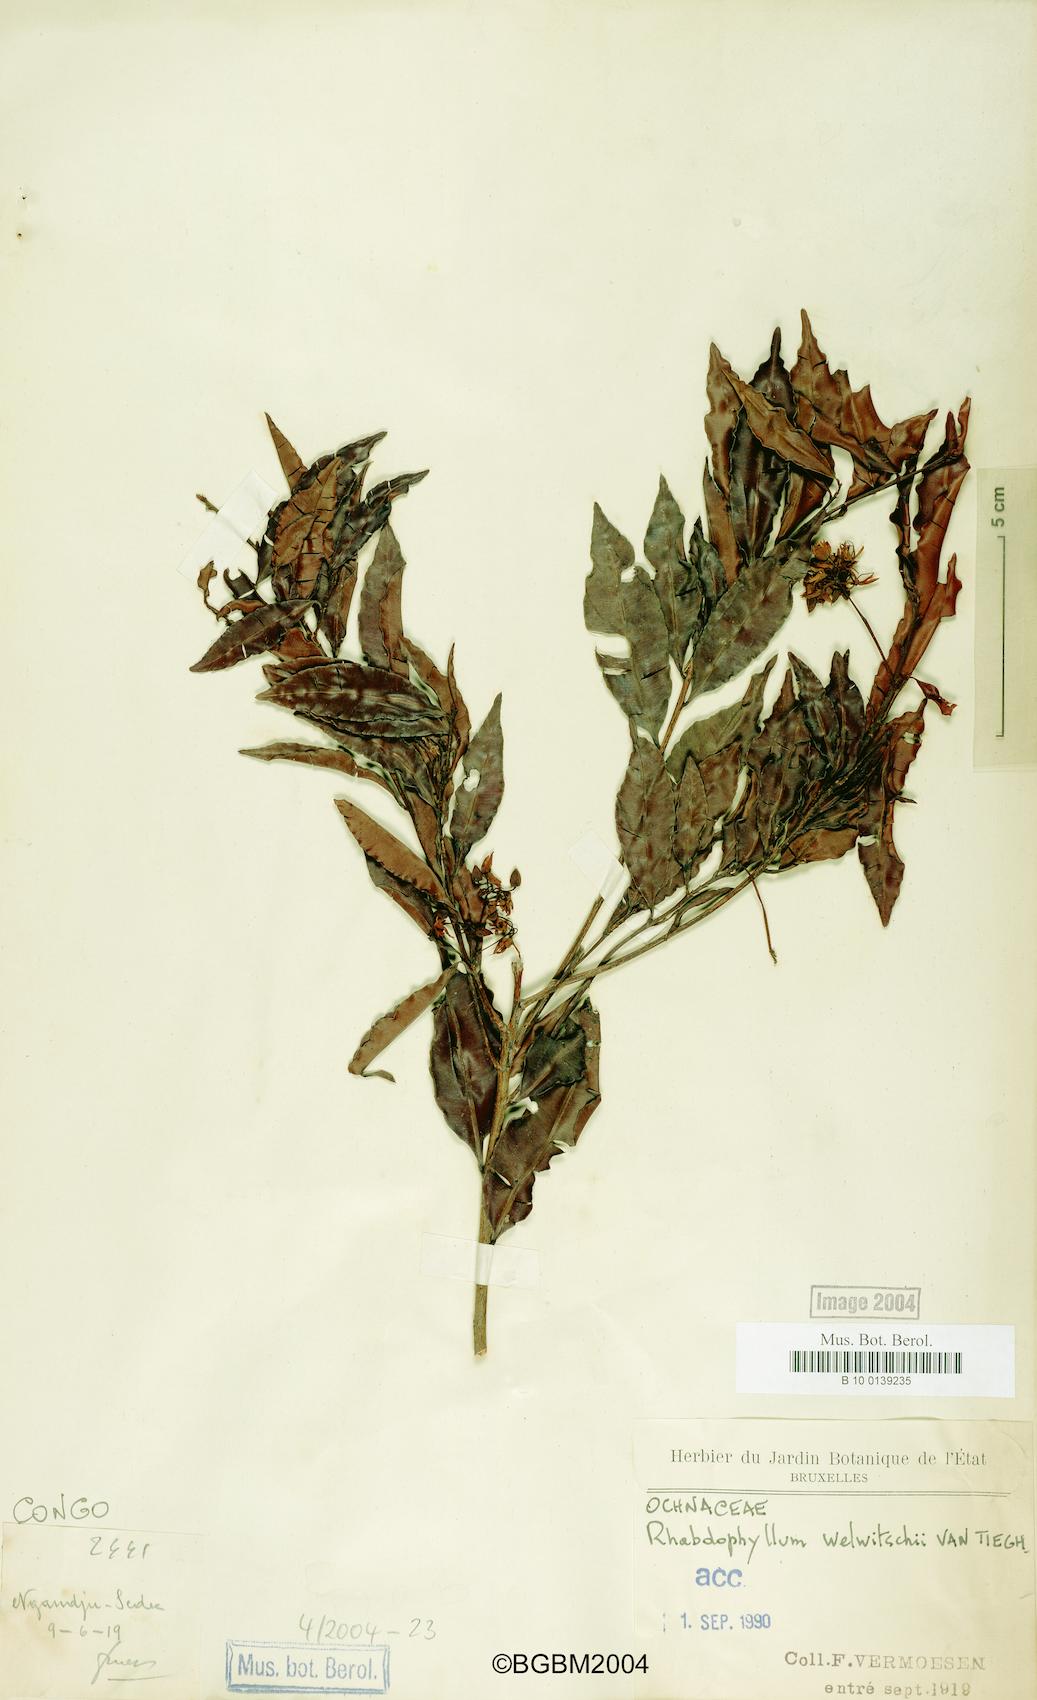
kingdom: Plantae
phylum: Tracheophyta
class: Magnoliopsida
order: Malpighiales
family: Ochnaceae
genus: Rhabdophyllum
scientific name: Rhabdophyllum welwitschii
